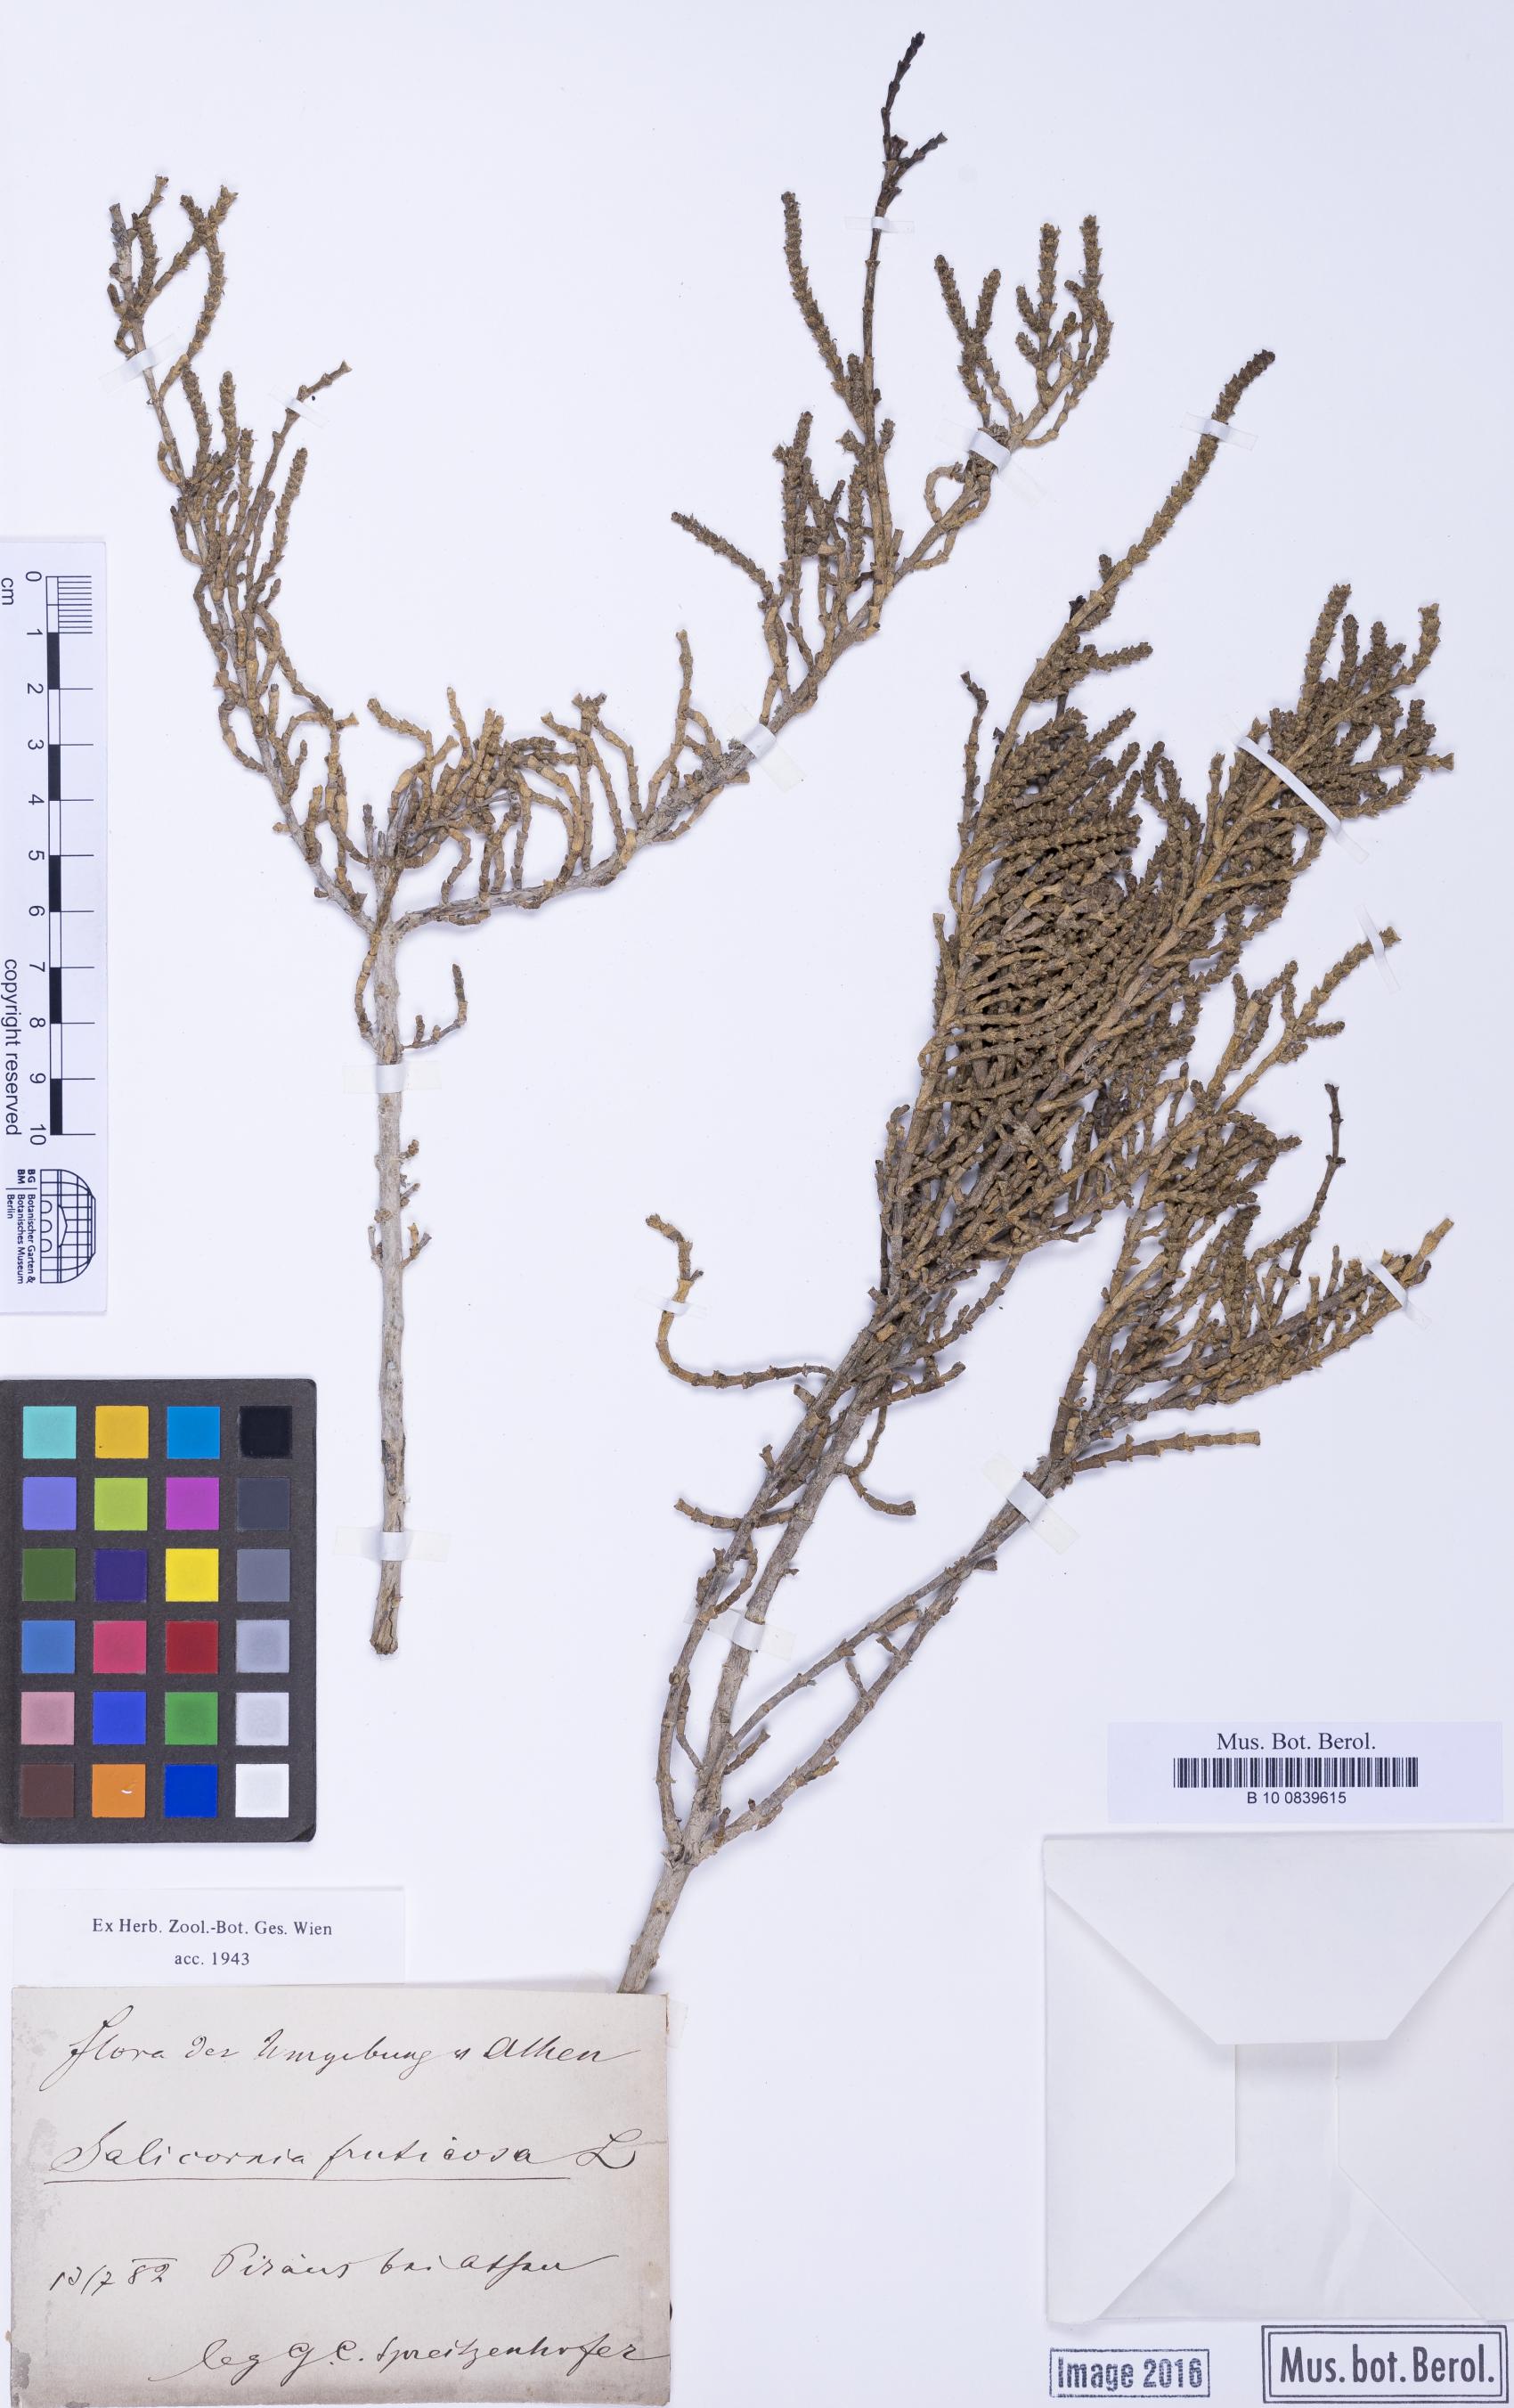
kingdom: Plantae
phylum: Tracheophyta
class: Magnoliopsida
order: Caryophyllales
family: Amaranthaceae
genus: Arthrocaulon
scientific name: Arthrocaulon macrostachyum
